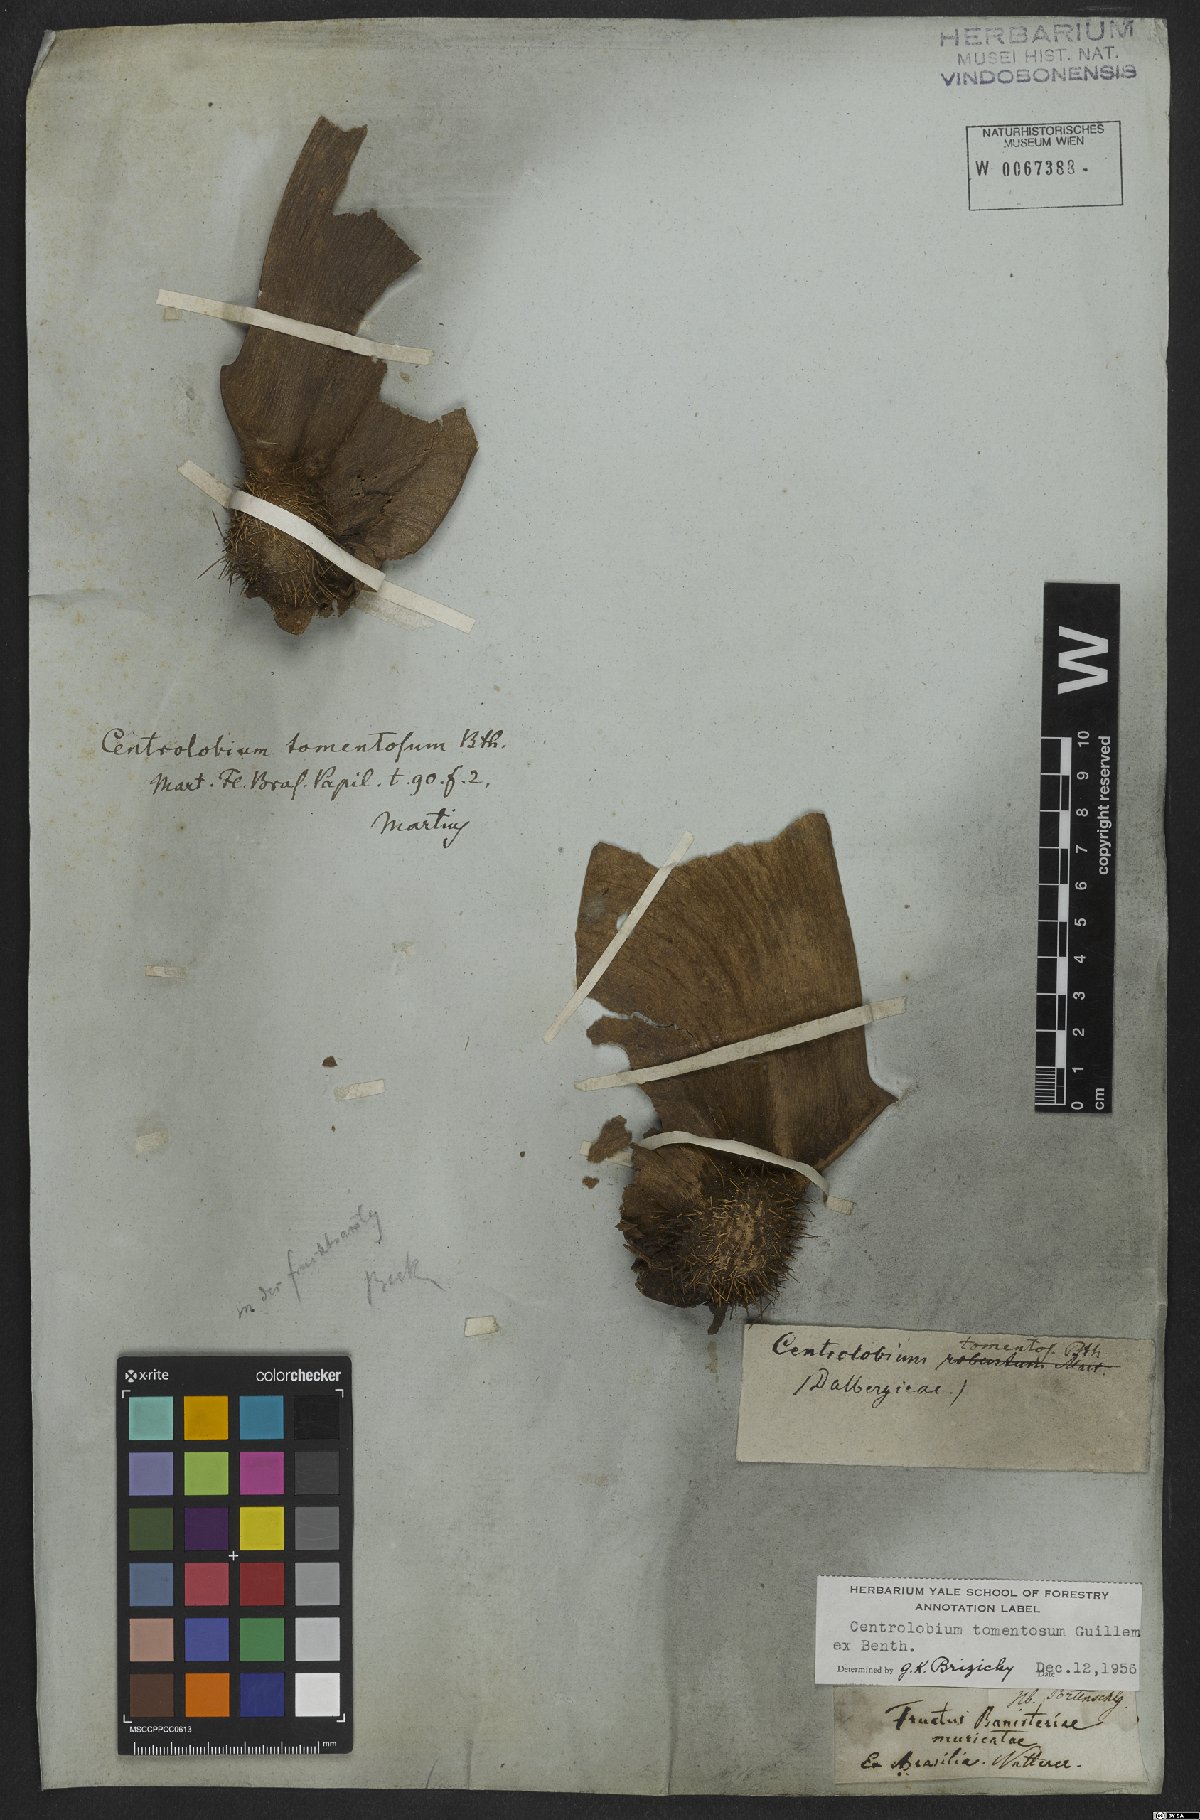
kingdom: Plantae
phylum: Tracheophyta
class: Magnoliopsida
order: Fabales
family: Fabaceae
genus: Centrolobium
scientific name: Centrolobium tomentosum
